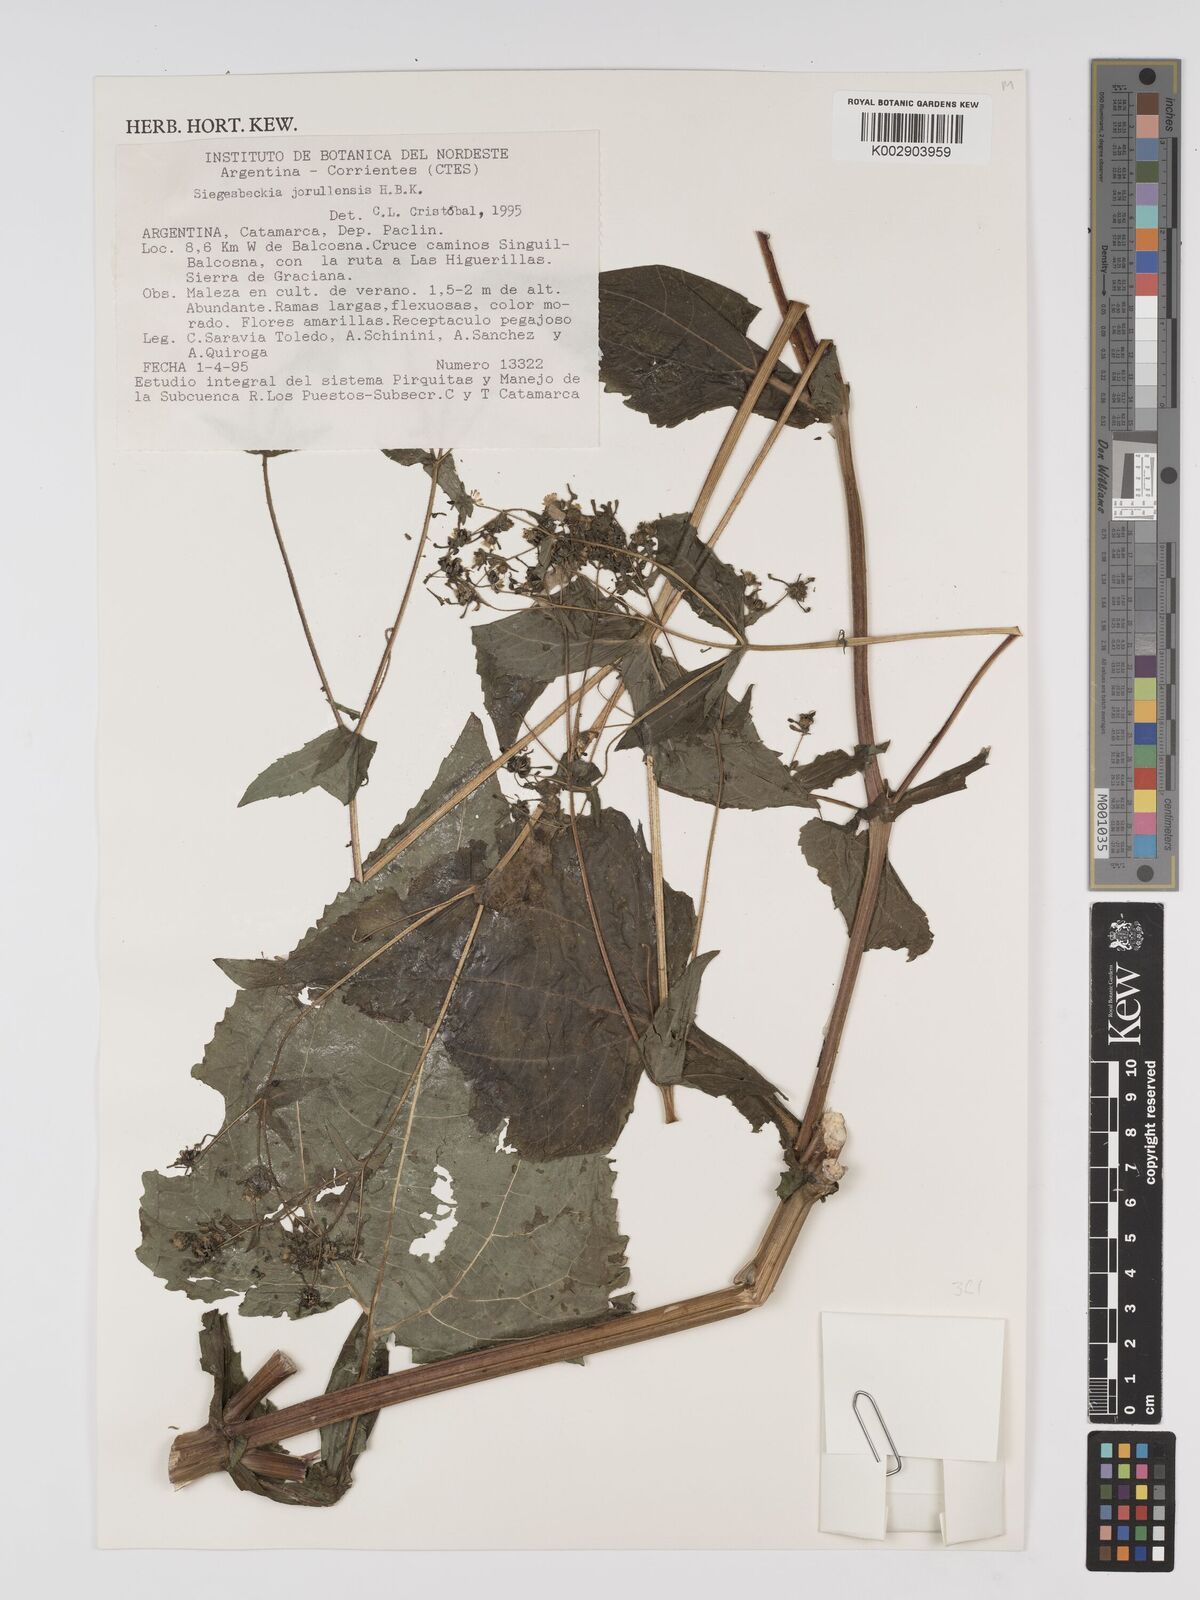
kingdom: Plantae
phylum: Tracheophyta
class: Magnoliopsida
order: Asterales
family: Asteraceae
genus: Sigesbeckia
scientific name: Sigesbeckia jorullensis
